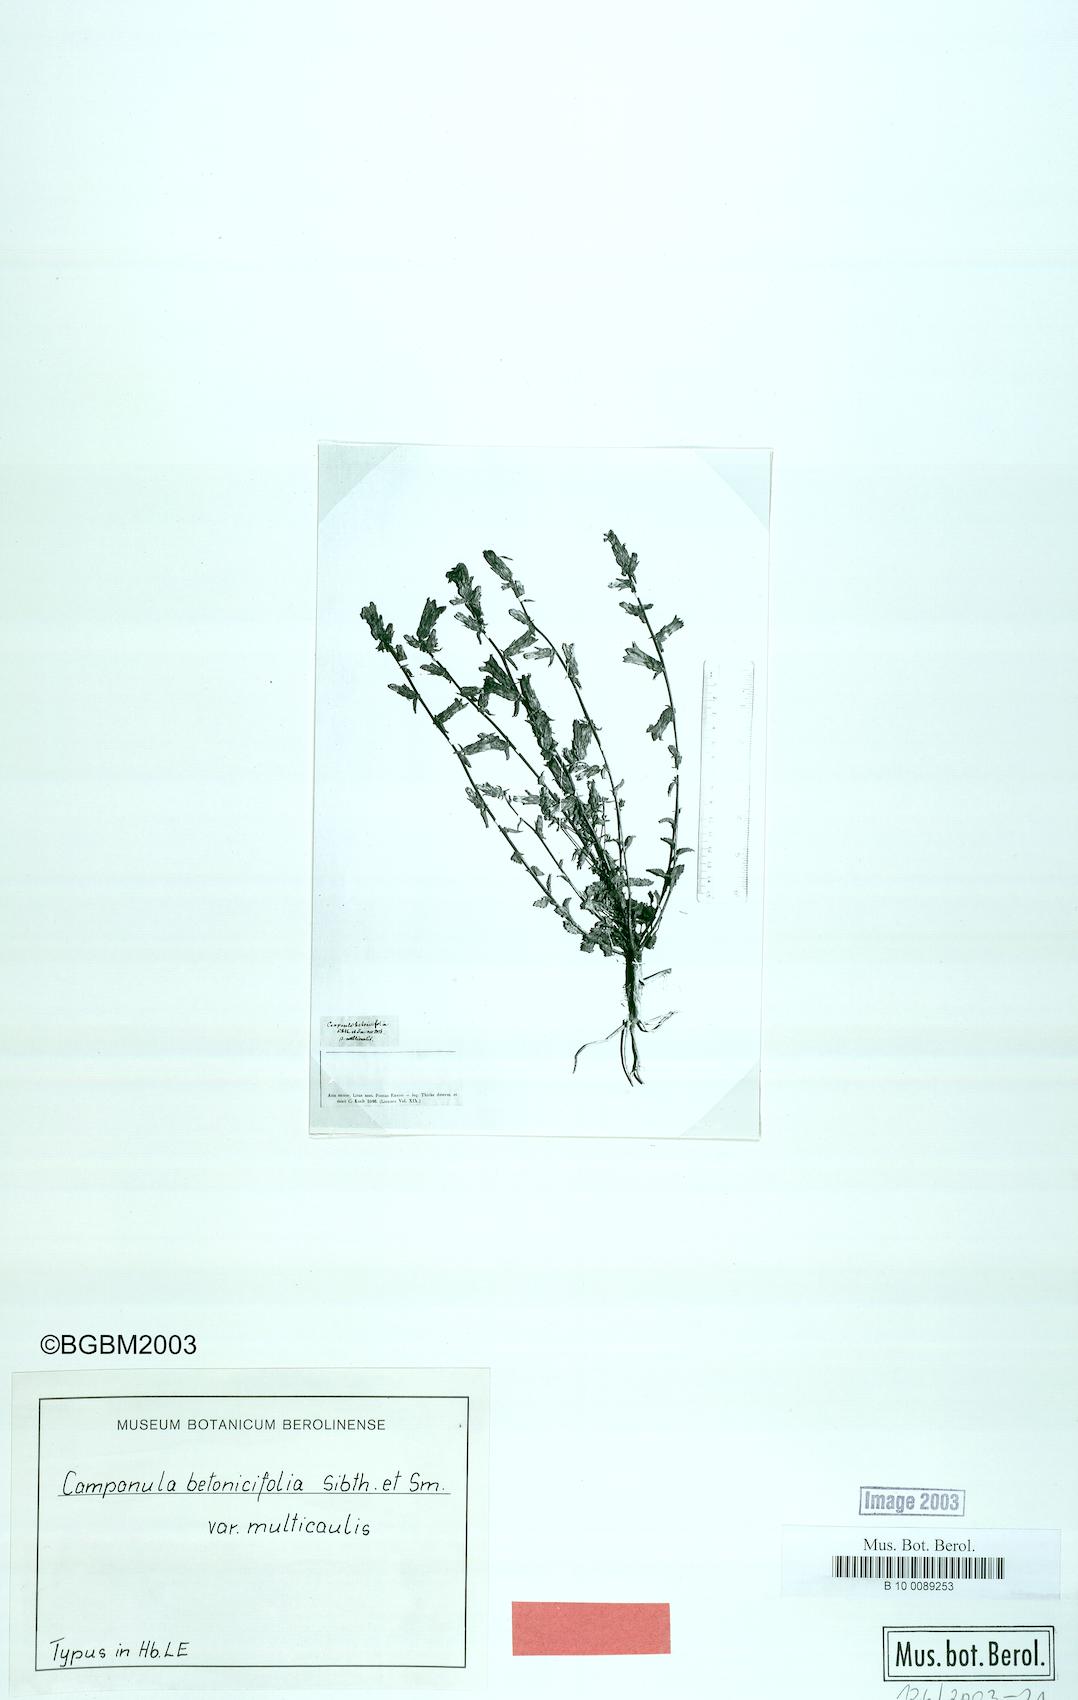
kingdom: Plantae
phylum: Tracheophyta
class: Magnoliopsida
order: Asterales
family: Campanulaceae
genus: Campanula
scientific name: Campanula betonicifolia
